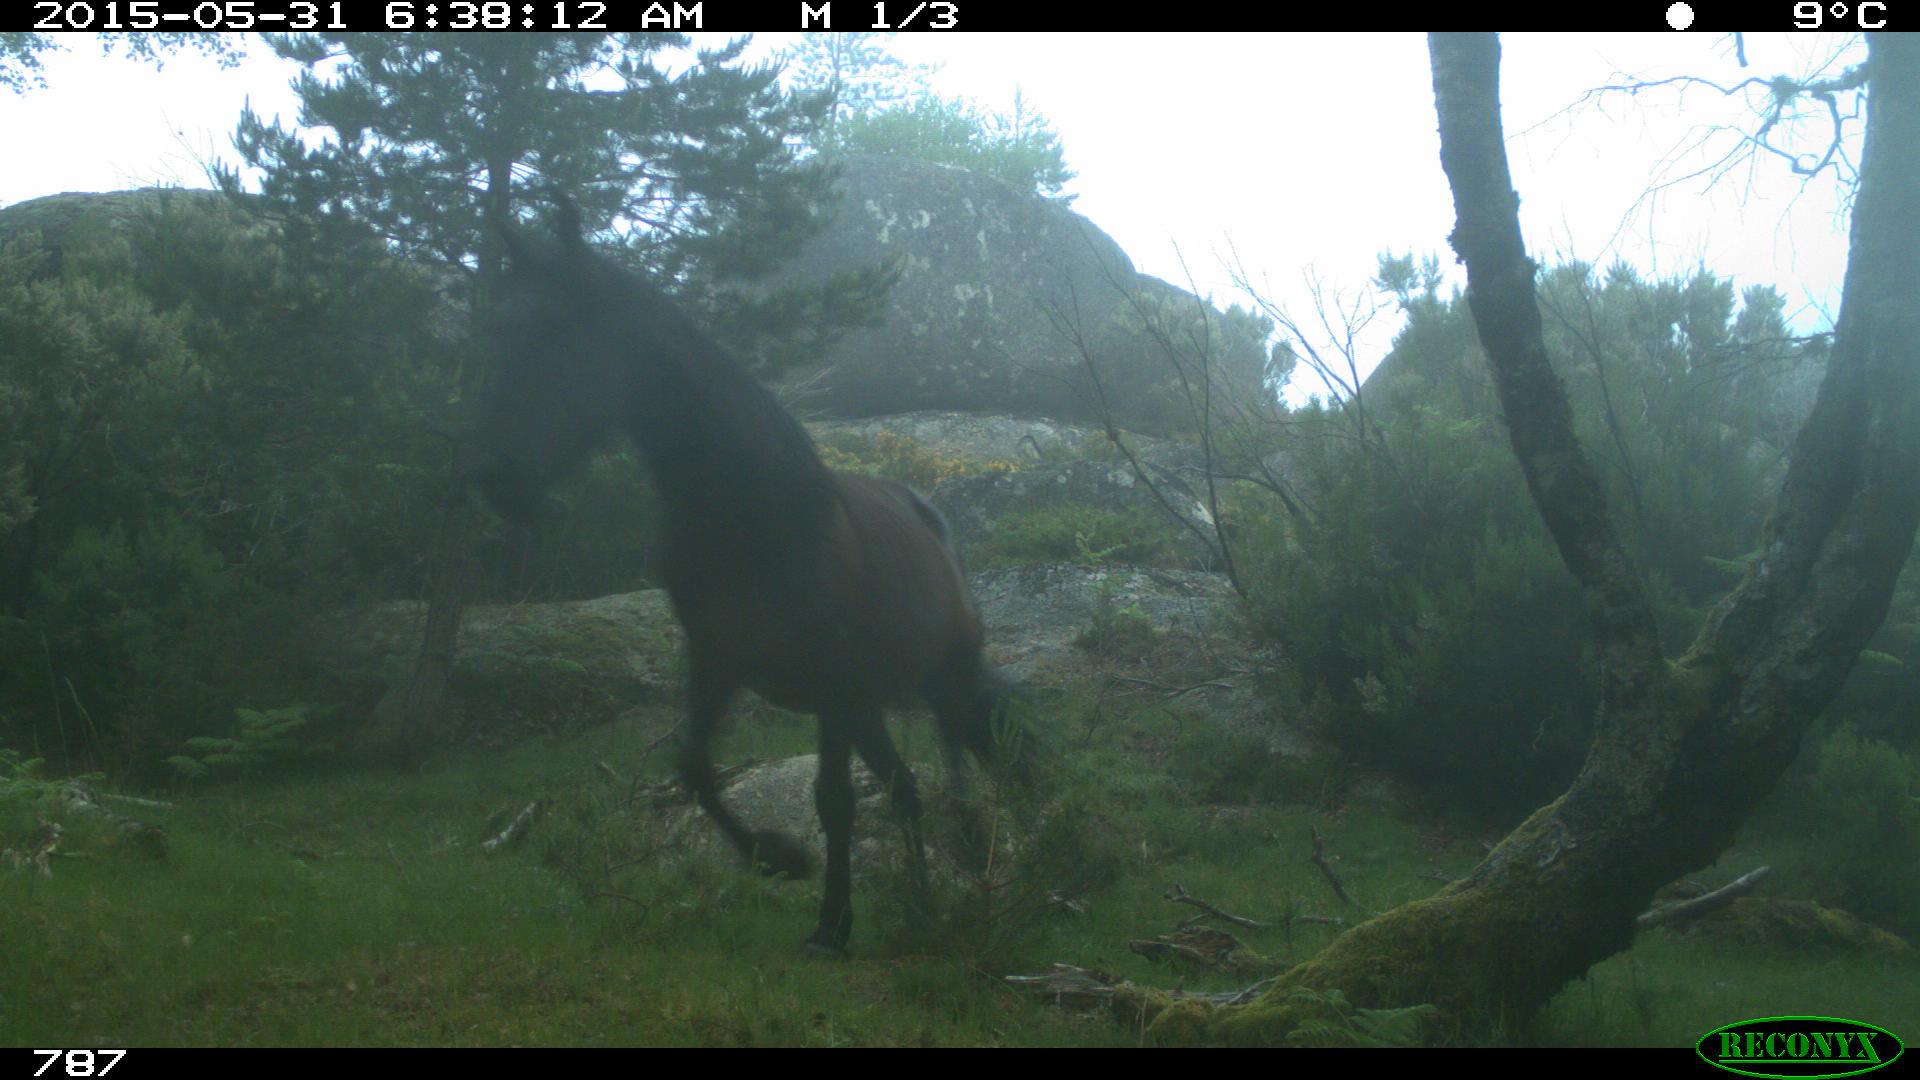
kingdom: Animalia
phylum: Chordata
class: Mammalia
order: Perissodactyla
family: Equidae
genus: Equus
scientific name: Equus caballus
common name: Horse
